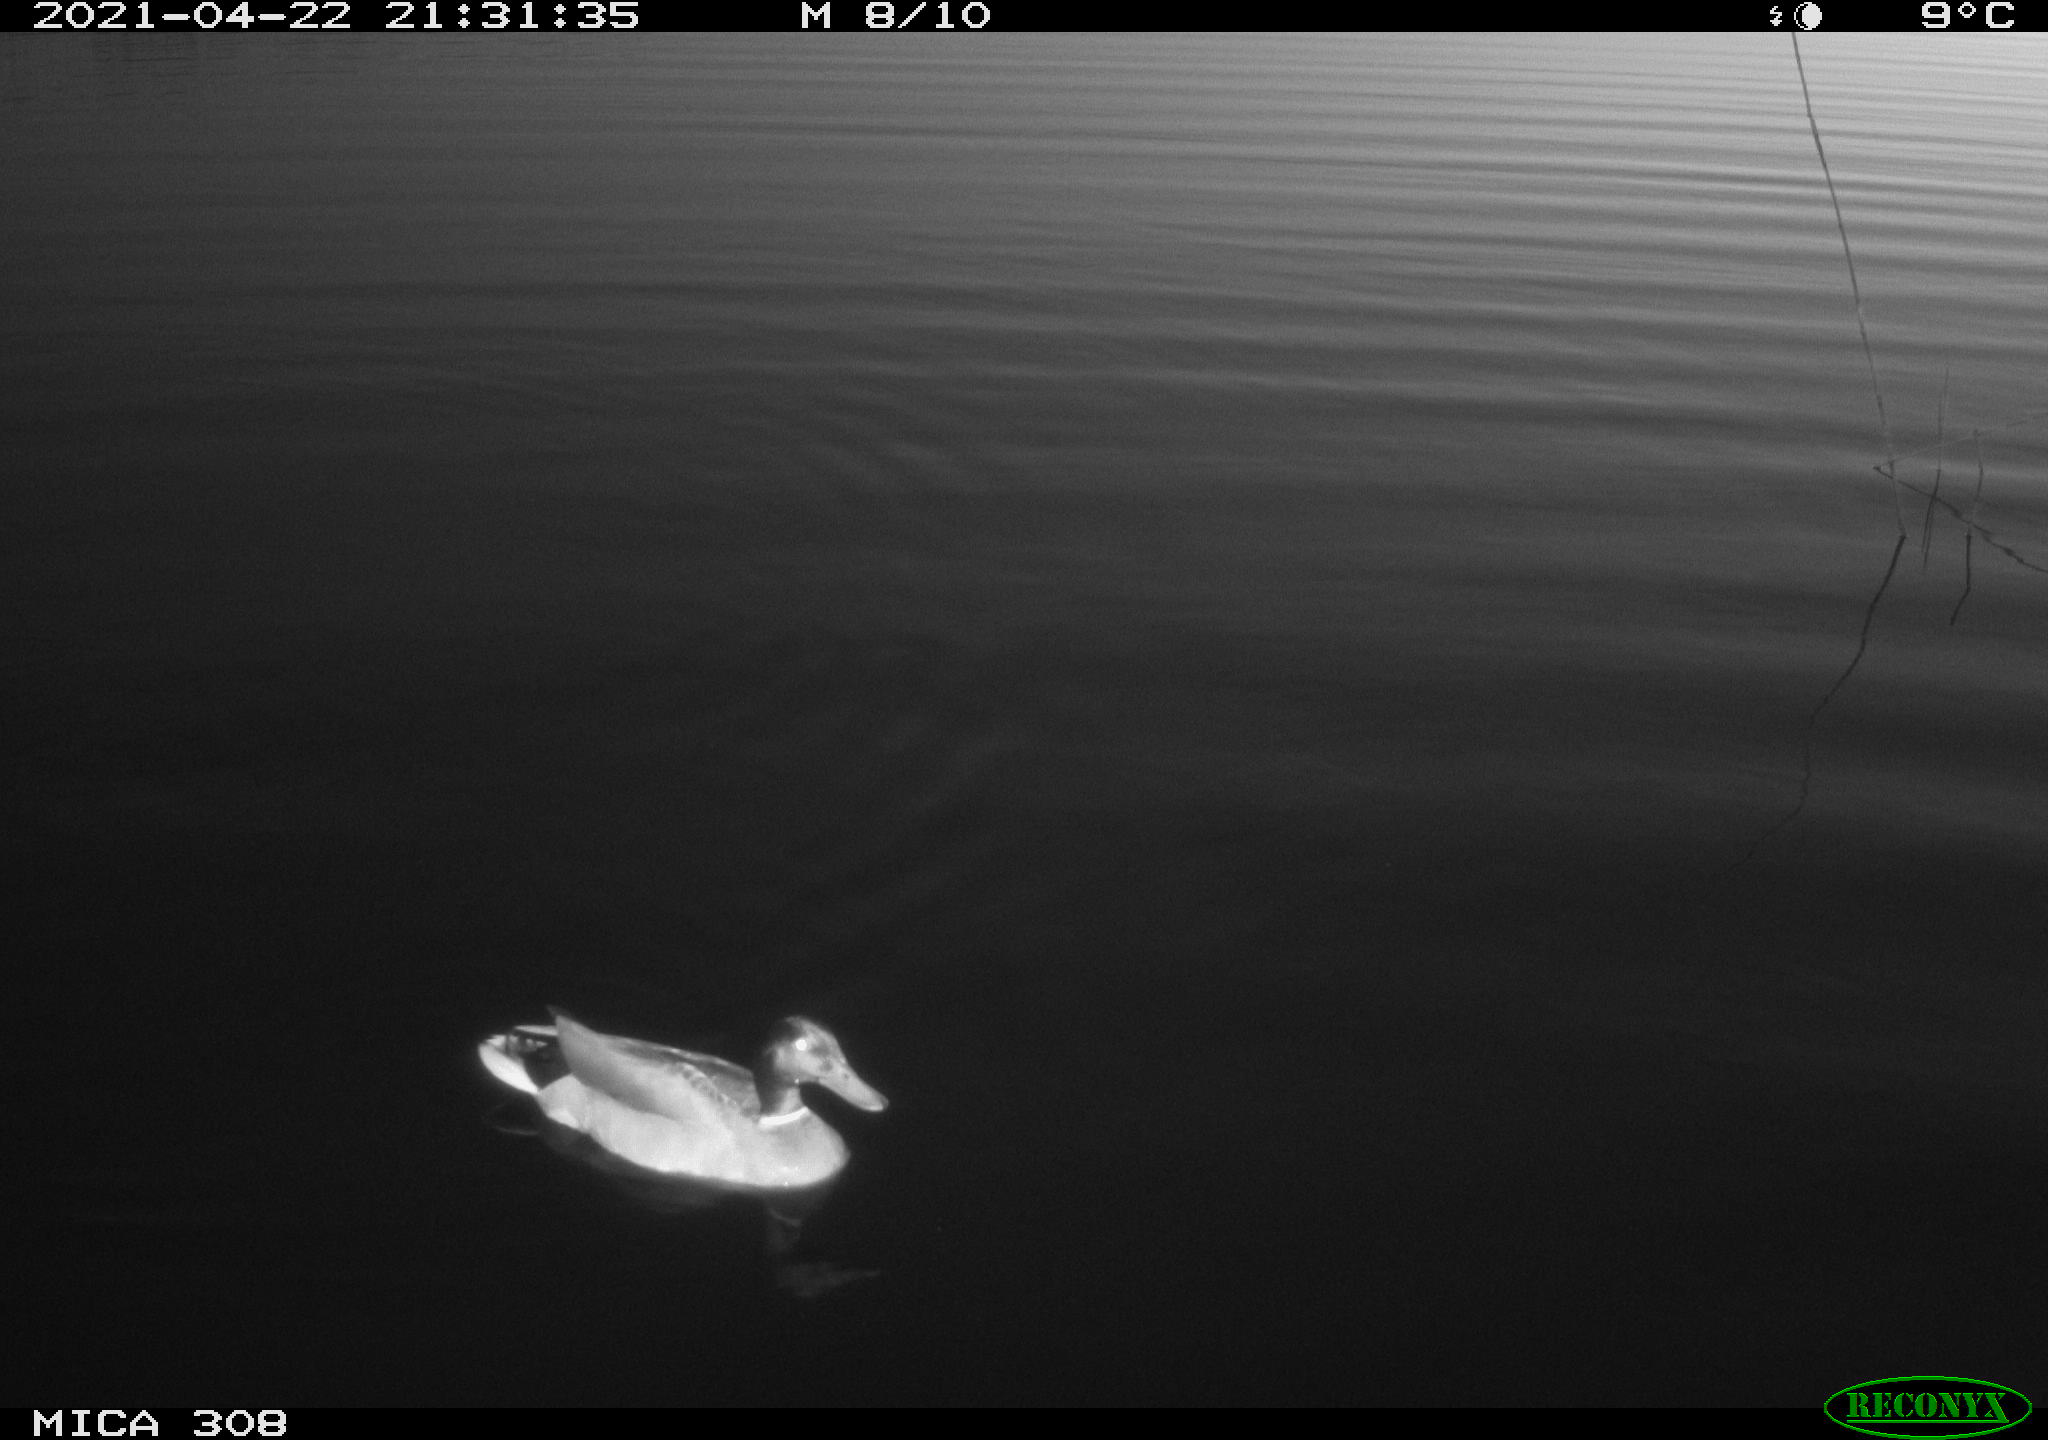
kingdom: Animalia
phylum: Chordata
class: Aves
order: Anseriformes
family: Anatidae
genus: Anas
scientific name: Anas platyrhynchos
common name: Mallard
